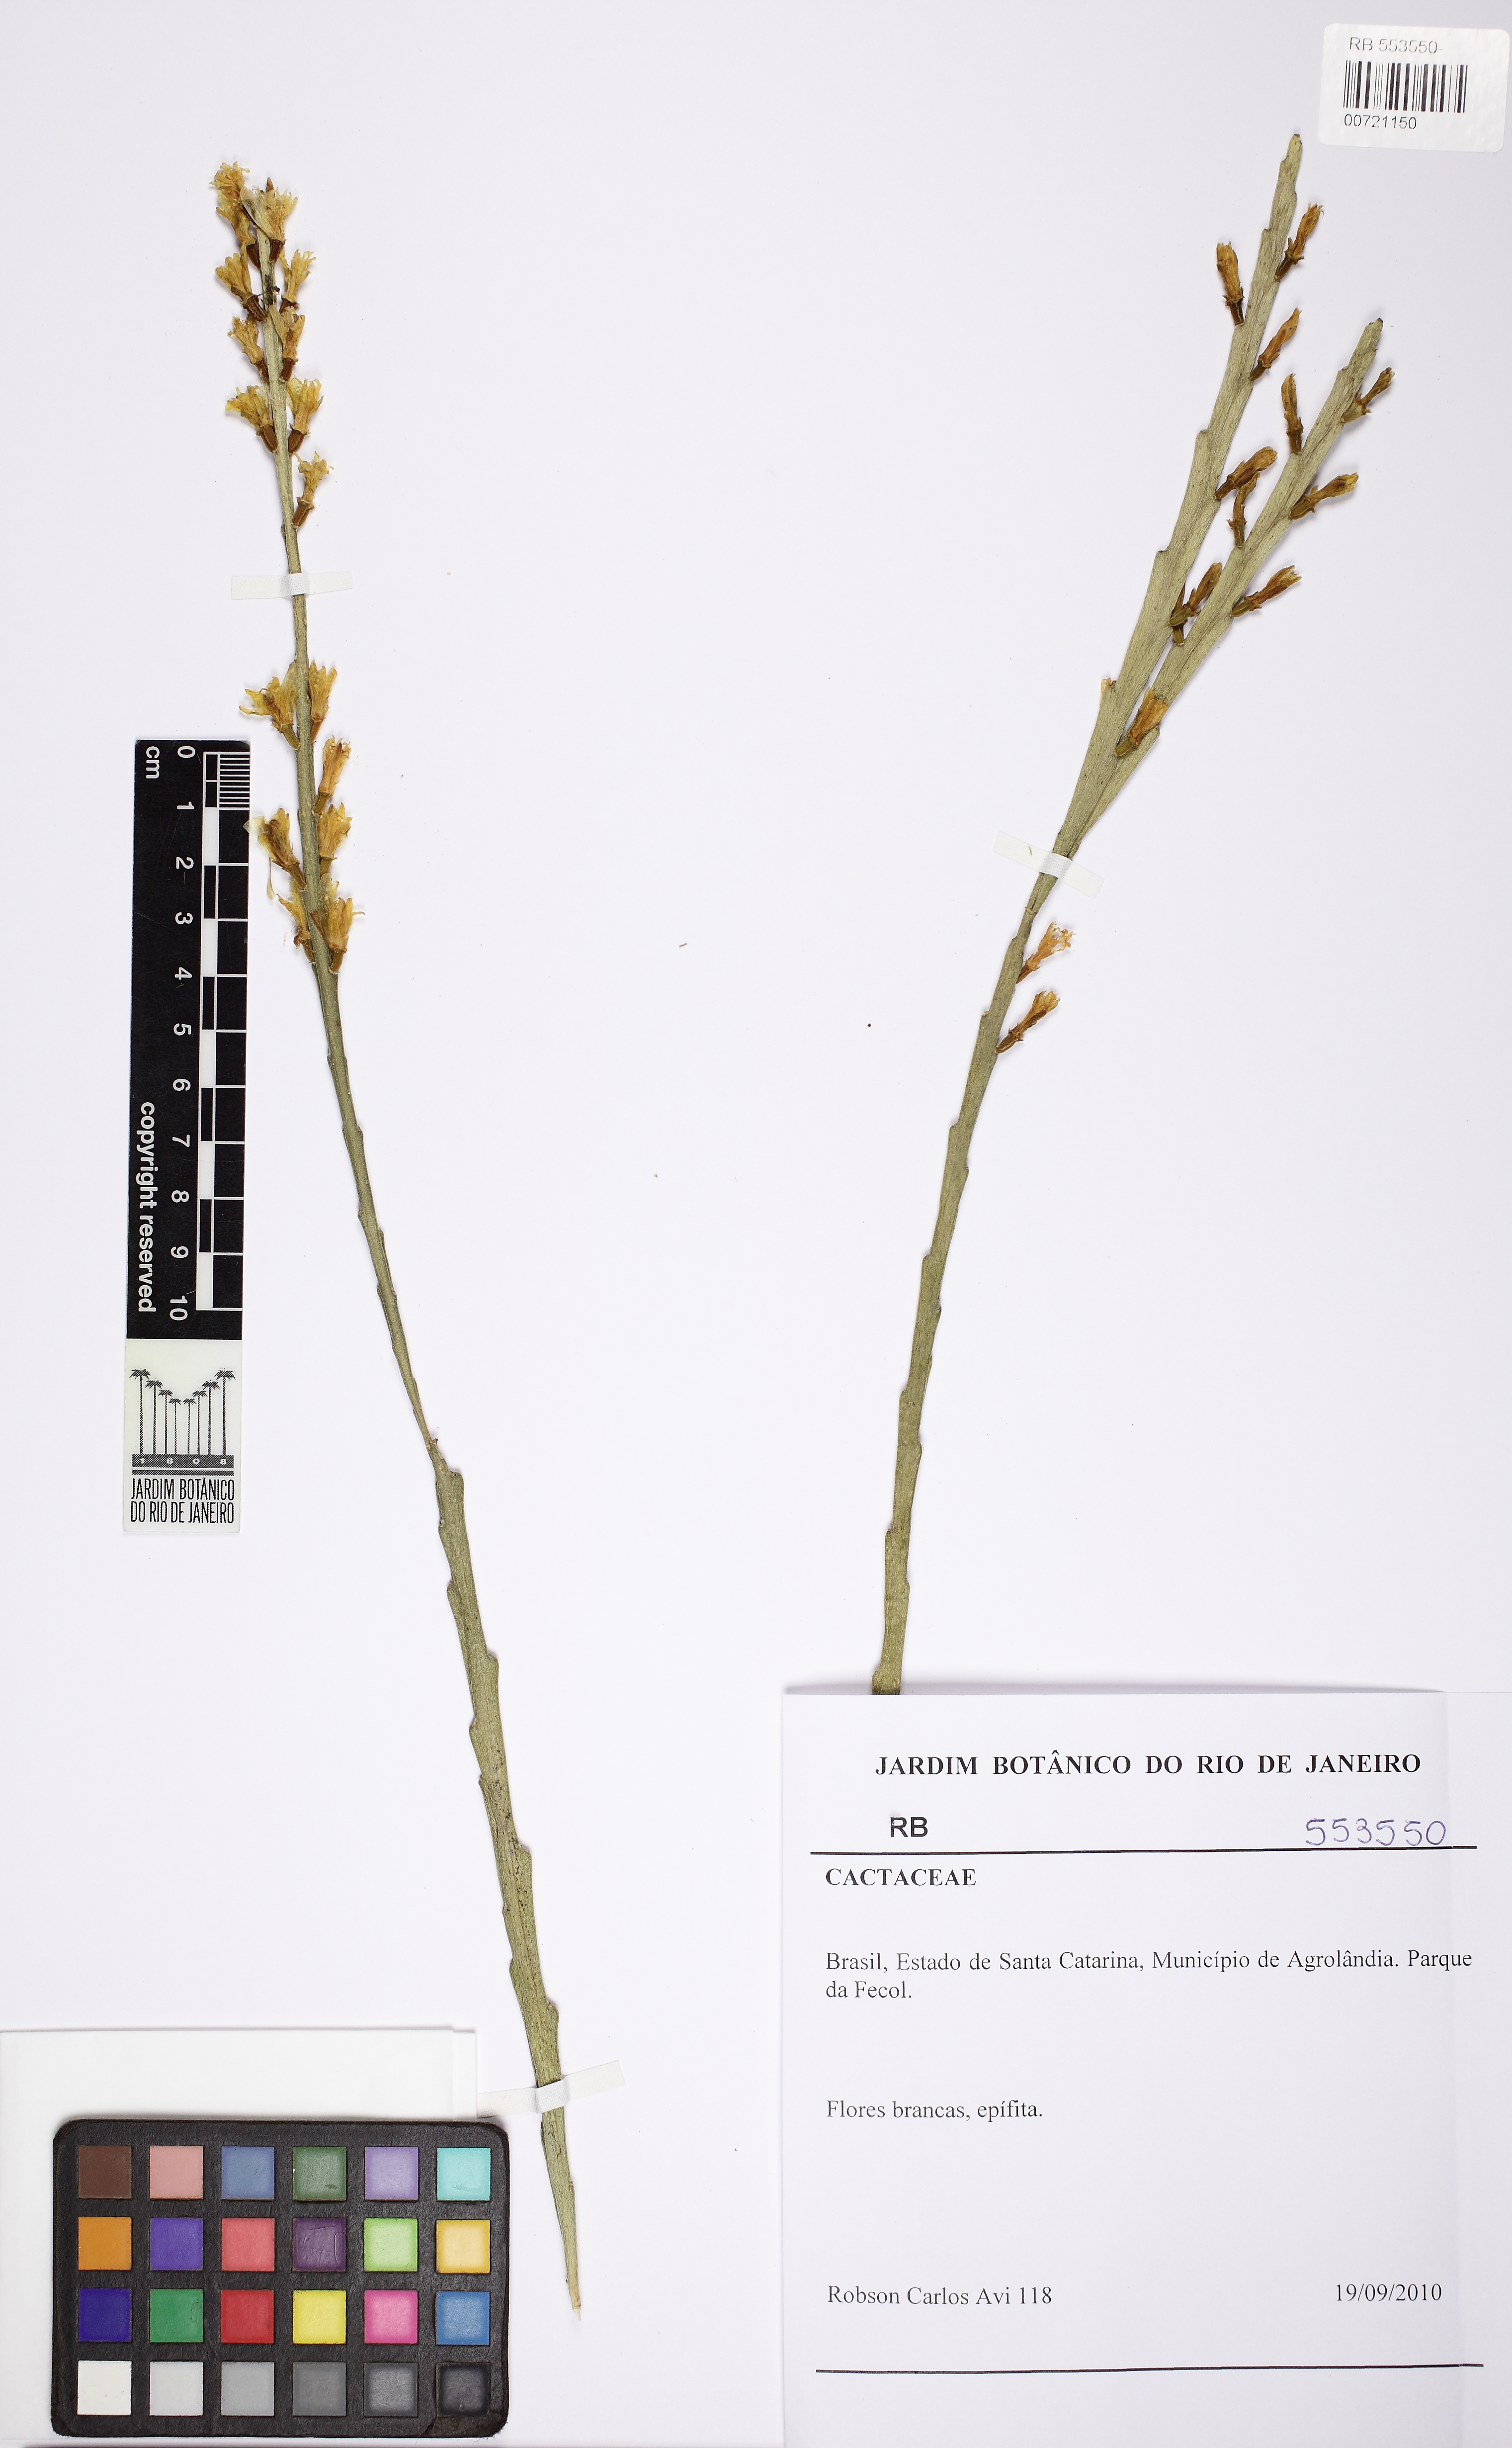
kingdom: Plantae
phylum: Tracheophyta
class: Magnoliopsida
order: Caryophyllales
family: Cactaceae
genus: Lepismium
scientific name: Lepismium warmingianum
